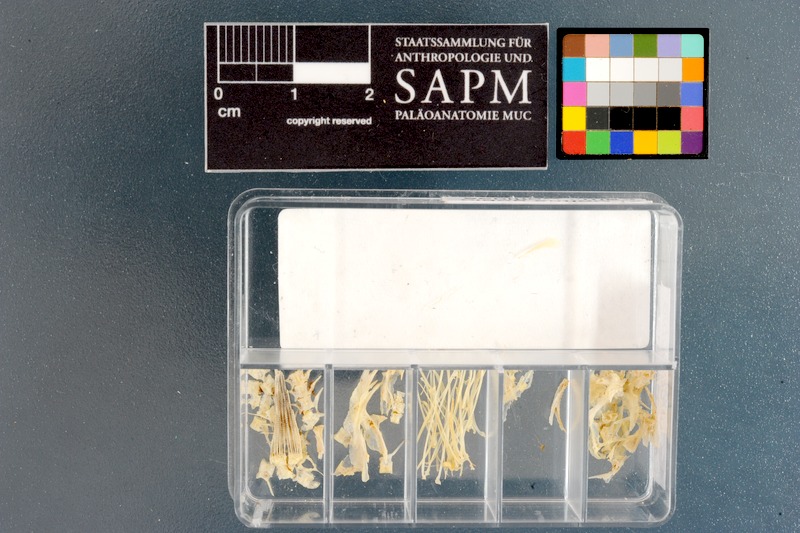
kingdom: Animalia
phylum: Chordata
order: Scorpaeniformes
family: Cottidae
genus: Cottus
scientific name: Cottus gobio
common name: Bullhead
